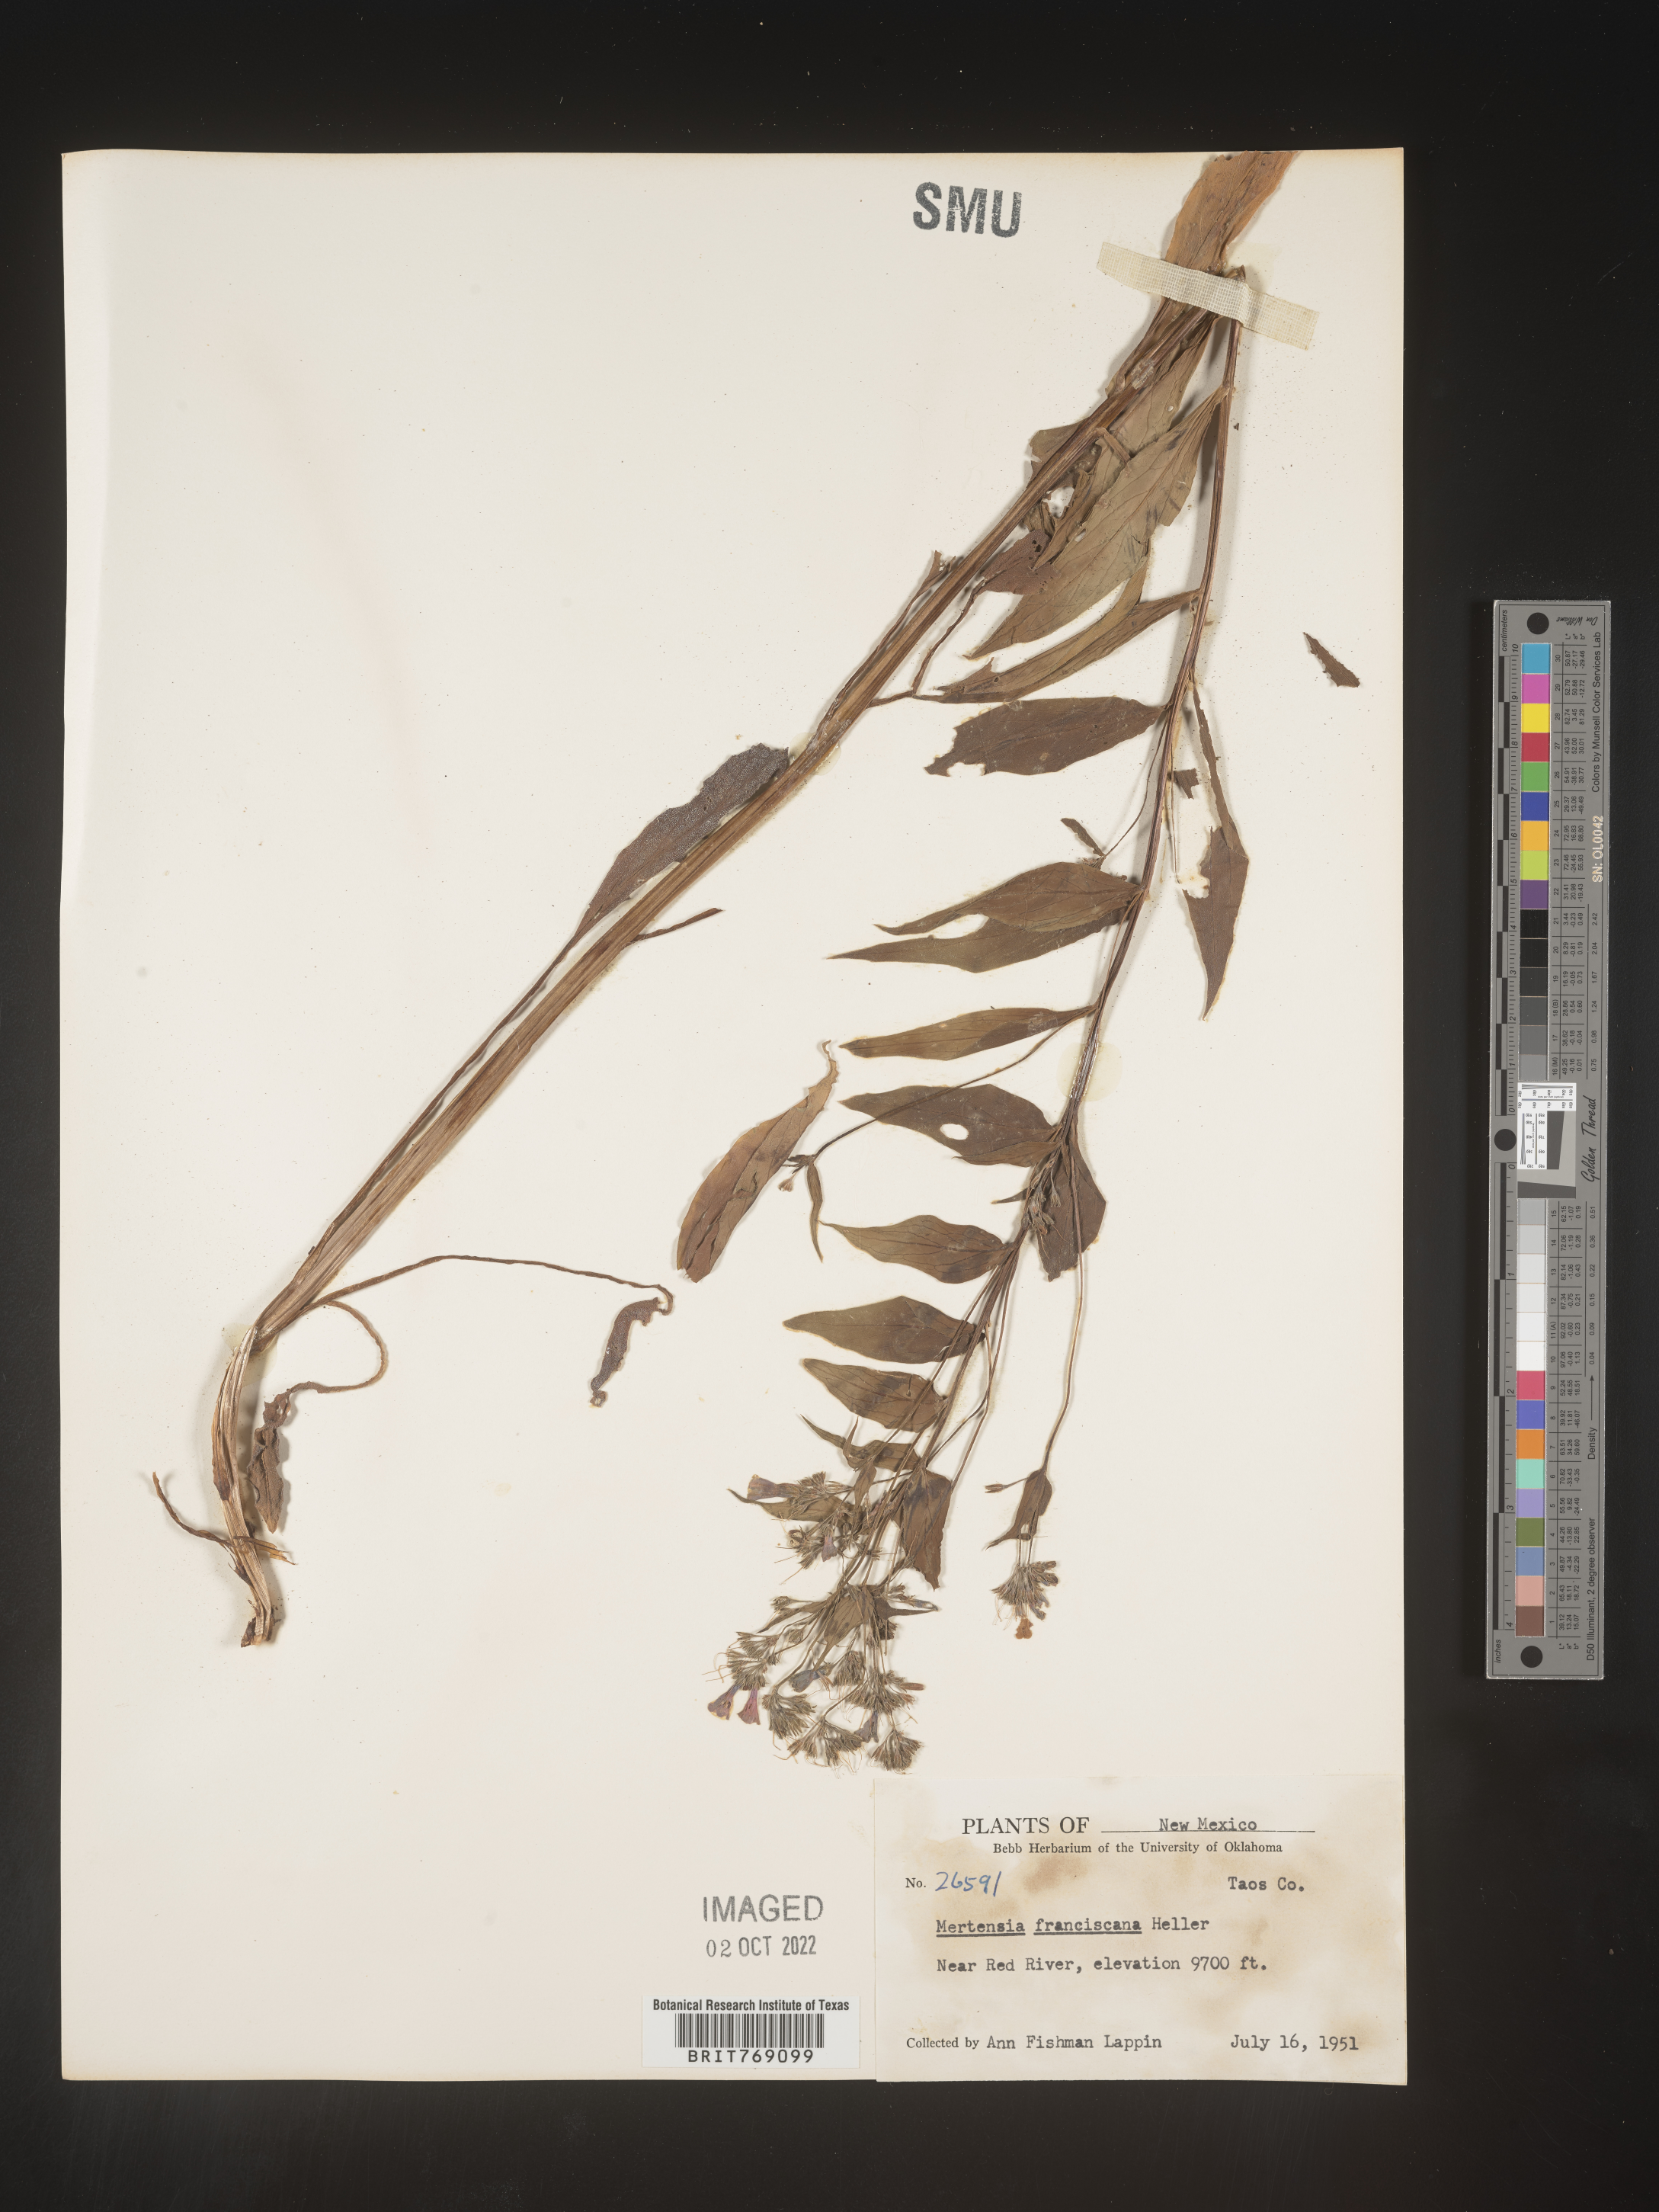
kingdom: Plantae
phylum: Tracheophyta
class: Magnoliopsida
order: Boraginales
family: Boraginaceae
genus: Mertensia
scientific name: Mertensia
